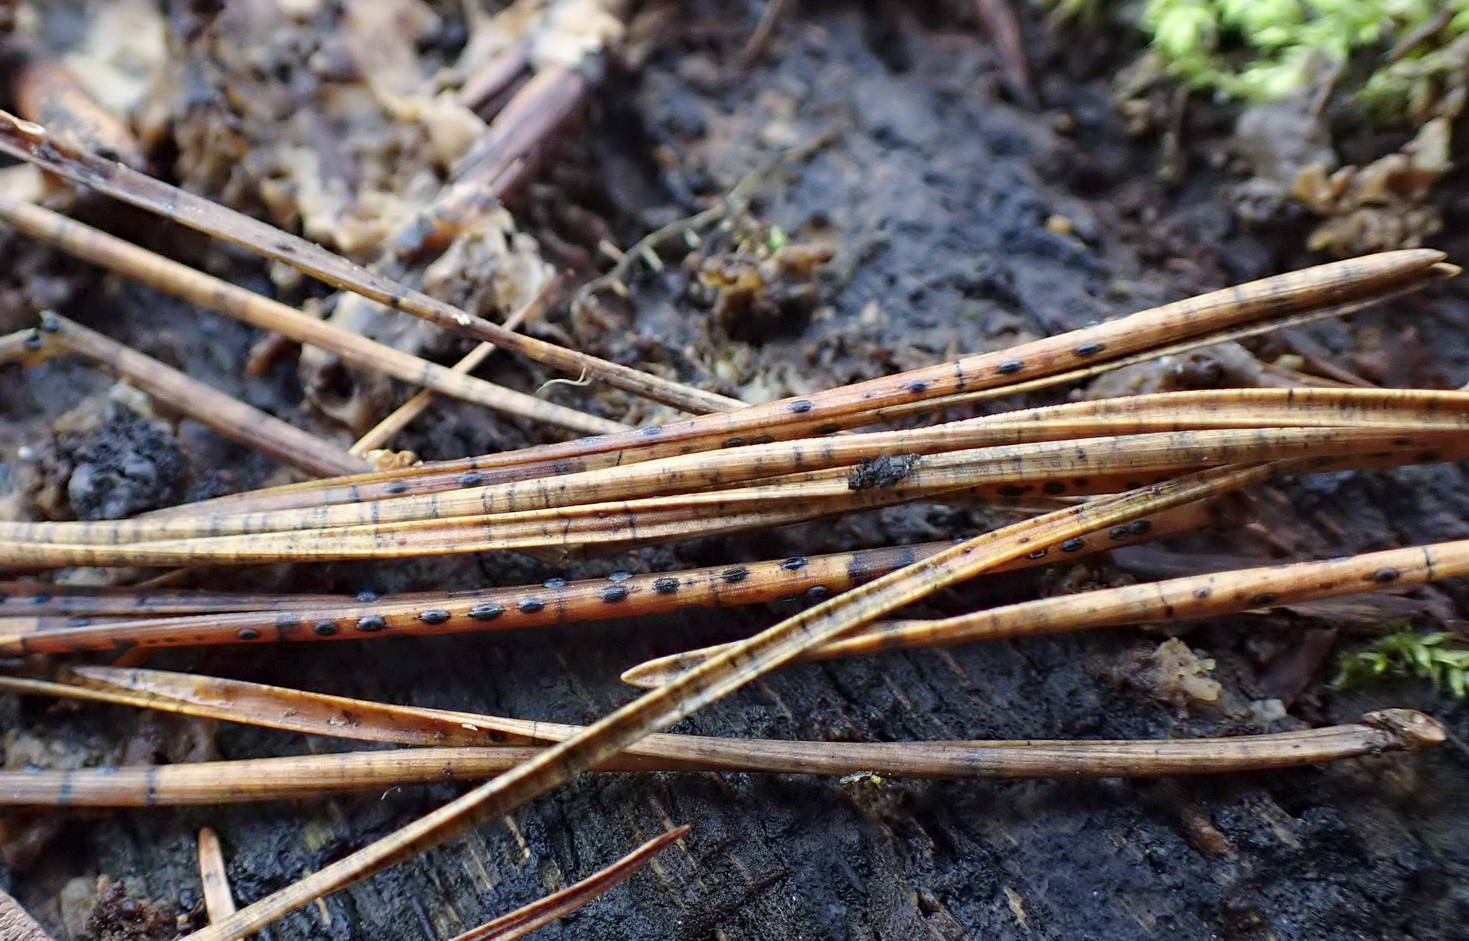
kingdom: Fungi
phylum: Ascomycota
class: Leotiomycetes
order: Rhytismatales
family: Rhytismataceae
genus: Lophodermium
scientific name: Lophodermium pinastri
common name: fyrre-fureplet
